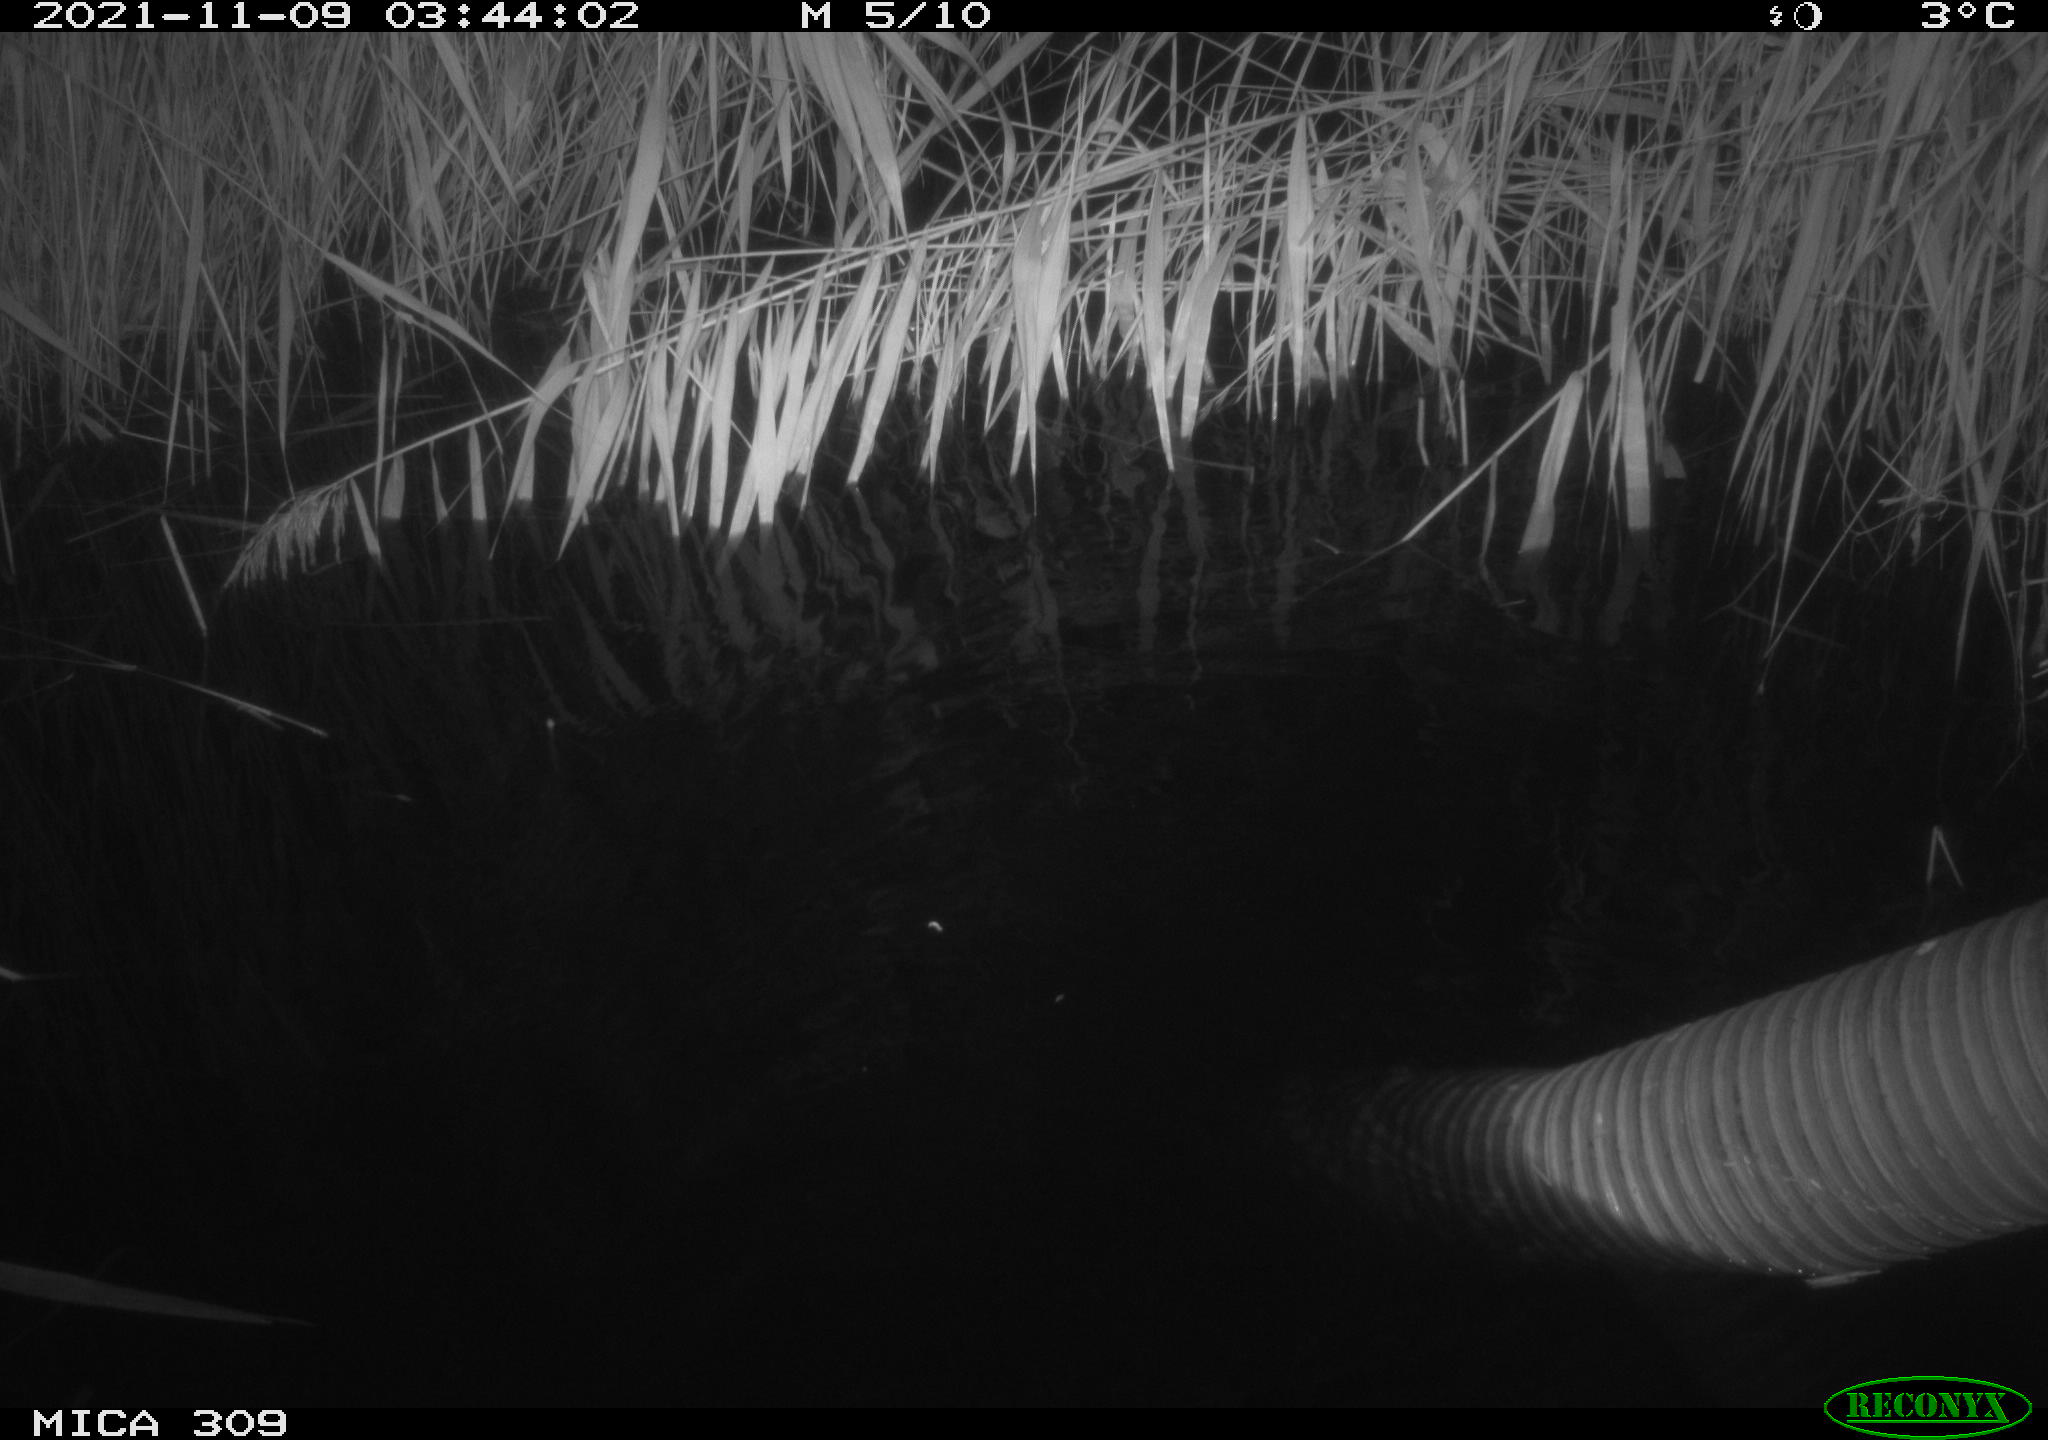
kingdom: Animalia
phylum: Chordata
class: Mammalia
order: Rodentia
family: Muridae
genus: Rattus
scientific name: Rattus norvegicus
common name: Brown rat
